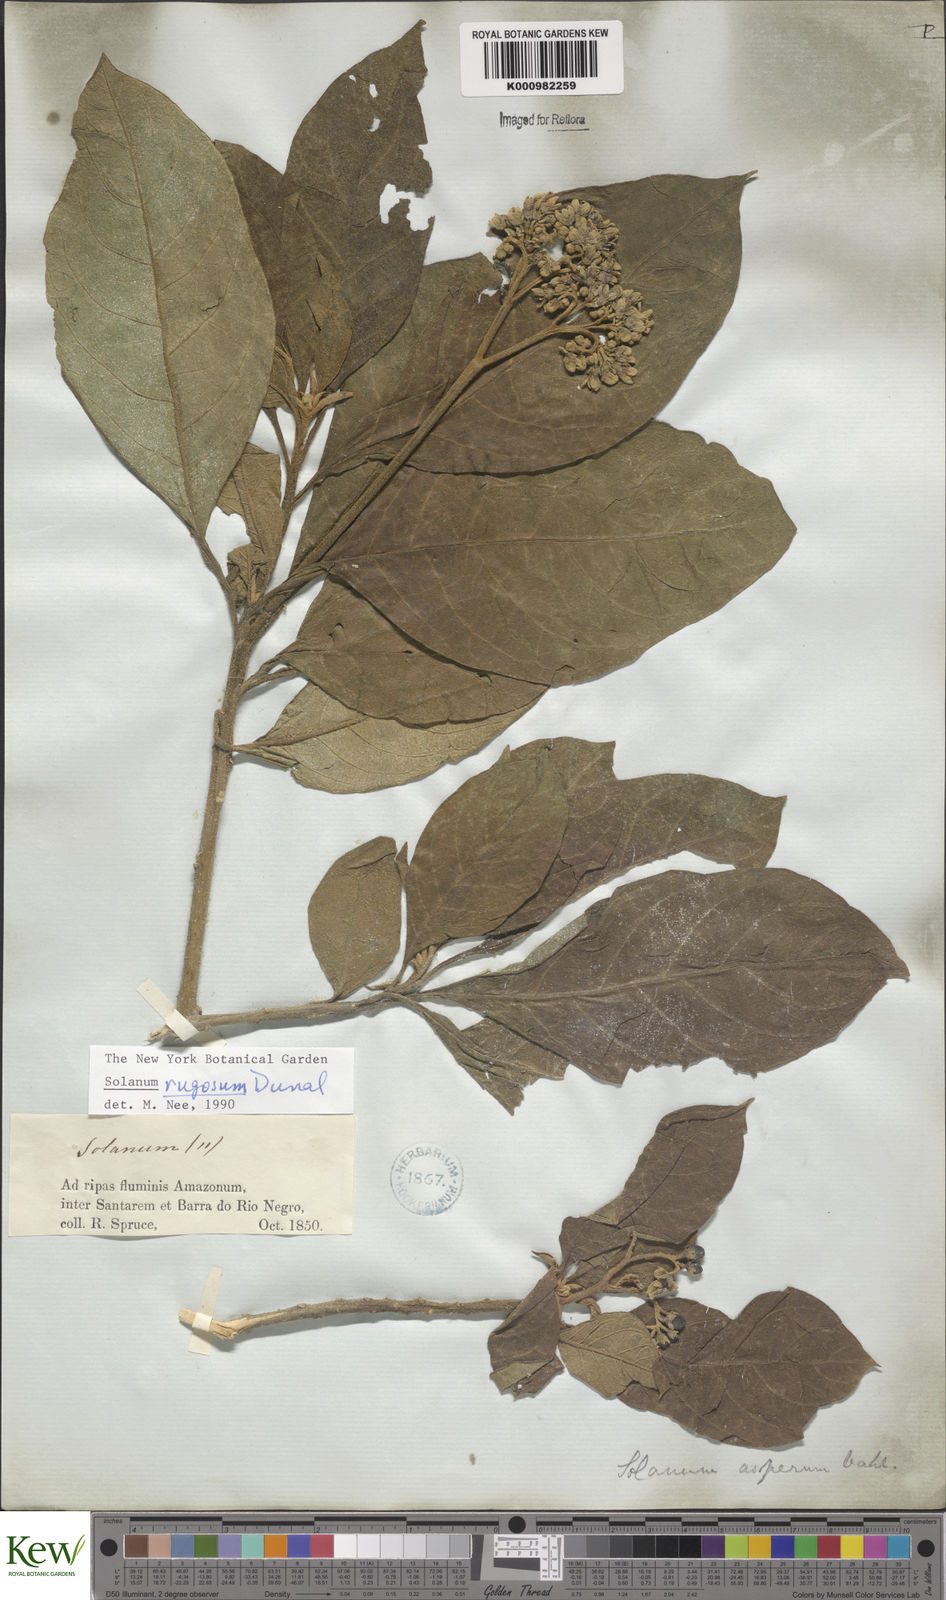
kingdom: Plantae
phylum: Tracheophyta
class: Magnoliopsida
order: Solanales
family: Solanaceae
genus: Solanum
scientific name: Solanum rugosum
